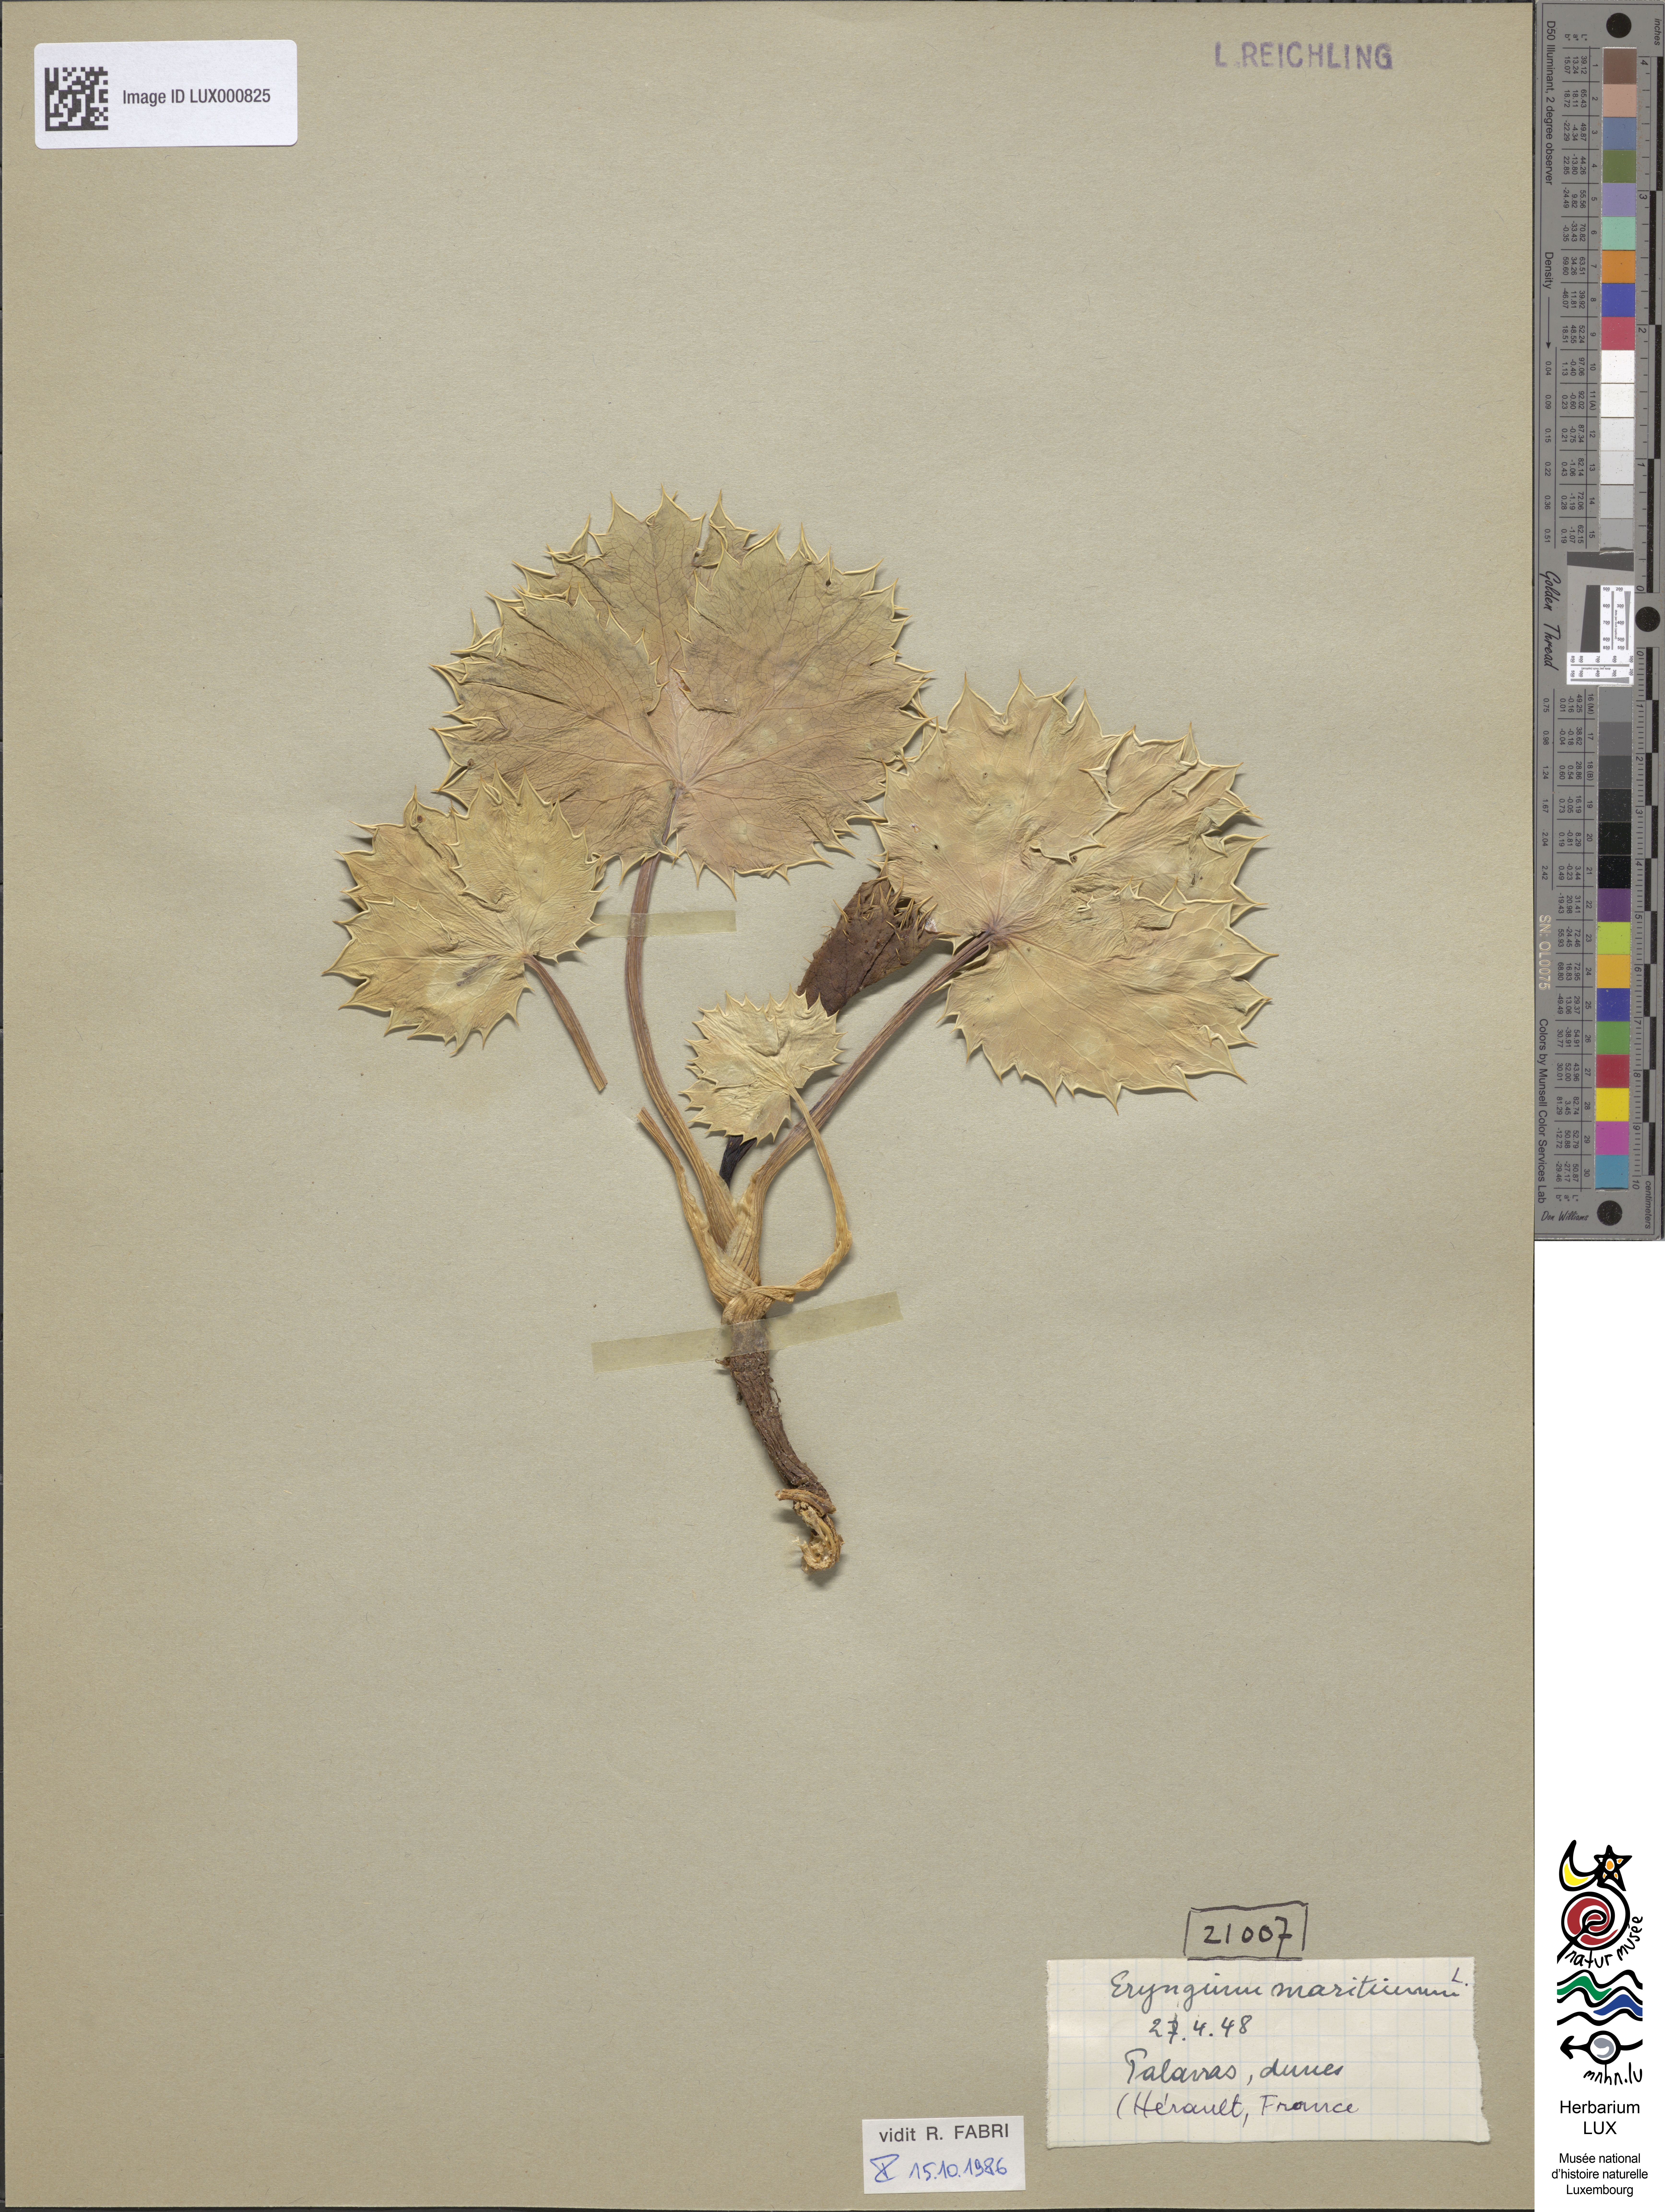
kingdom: Plantae
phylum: Tracheophyta
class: Magnoliopsida
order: Apiales
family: Apiaceae
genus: Eryngium
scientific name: Eryngium maritimum
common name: Sea-holly
